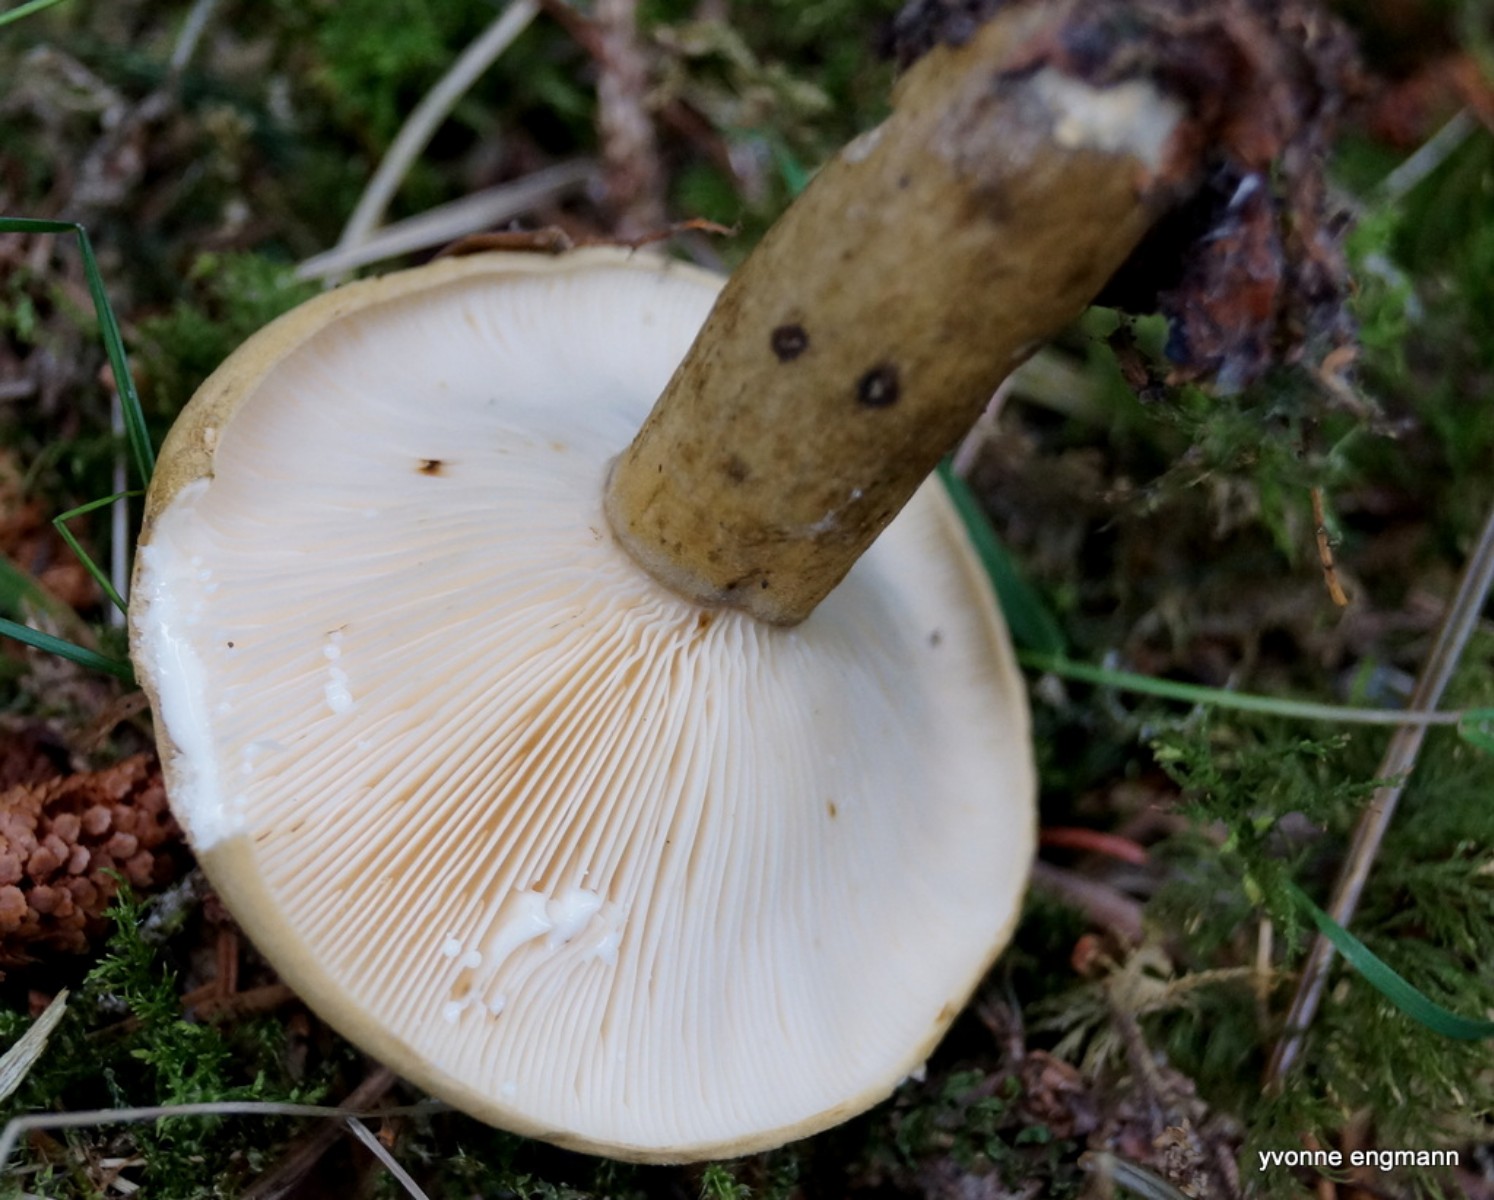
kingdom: Fungi
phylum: Basidiomycota
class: Agaricomycetes
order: Russulales
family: Russulaceae
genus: Lactarius
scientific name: Lactarius necator
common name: manddraber-mælkehat
